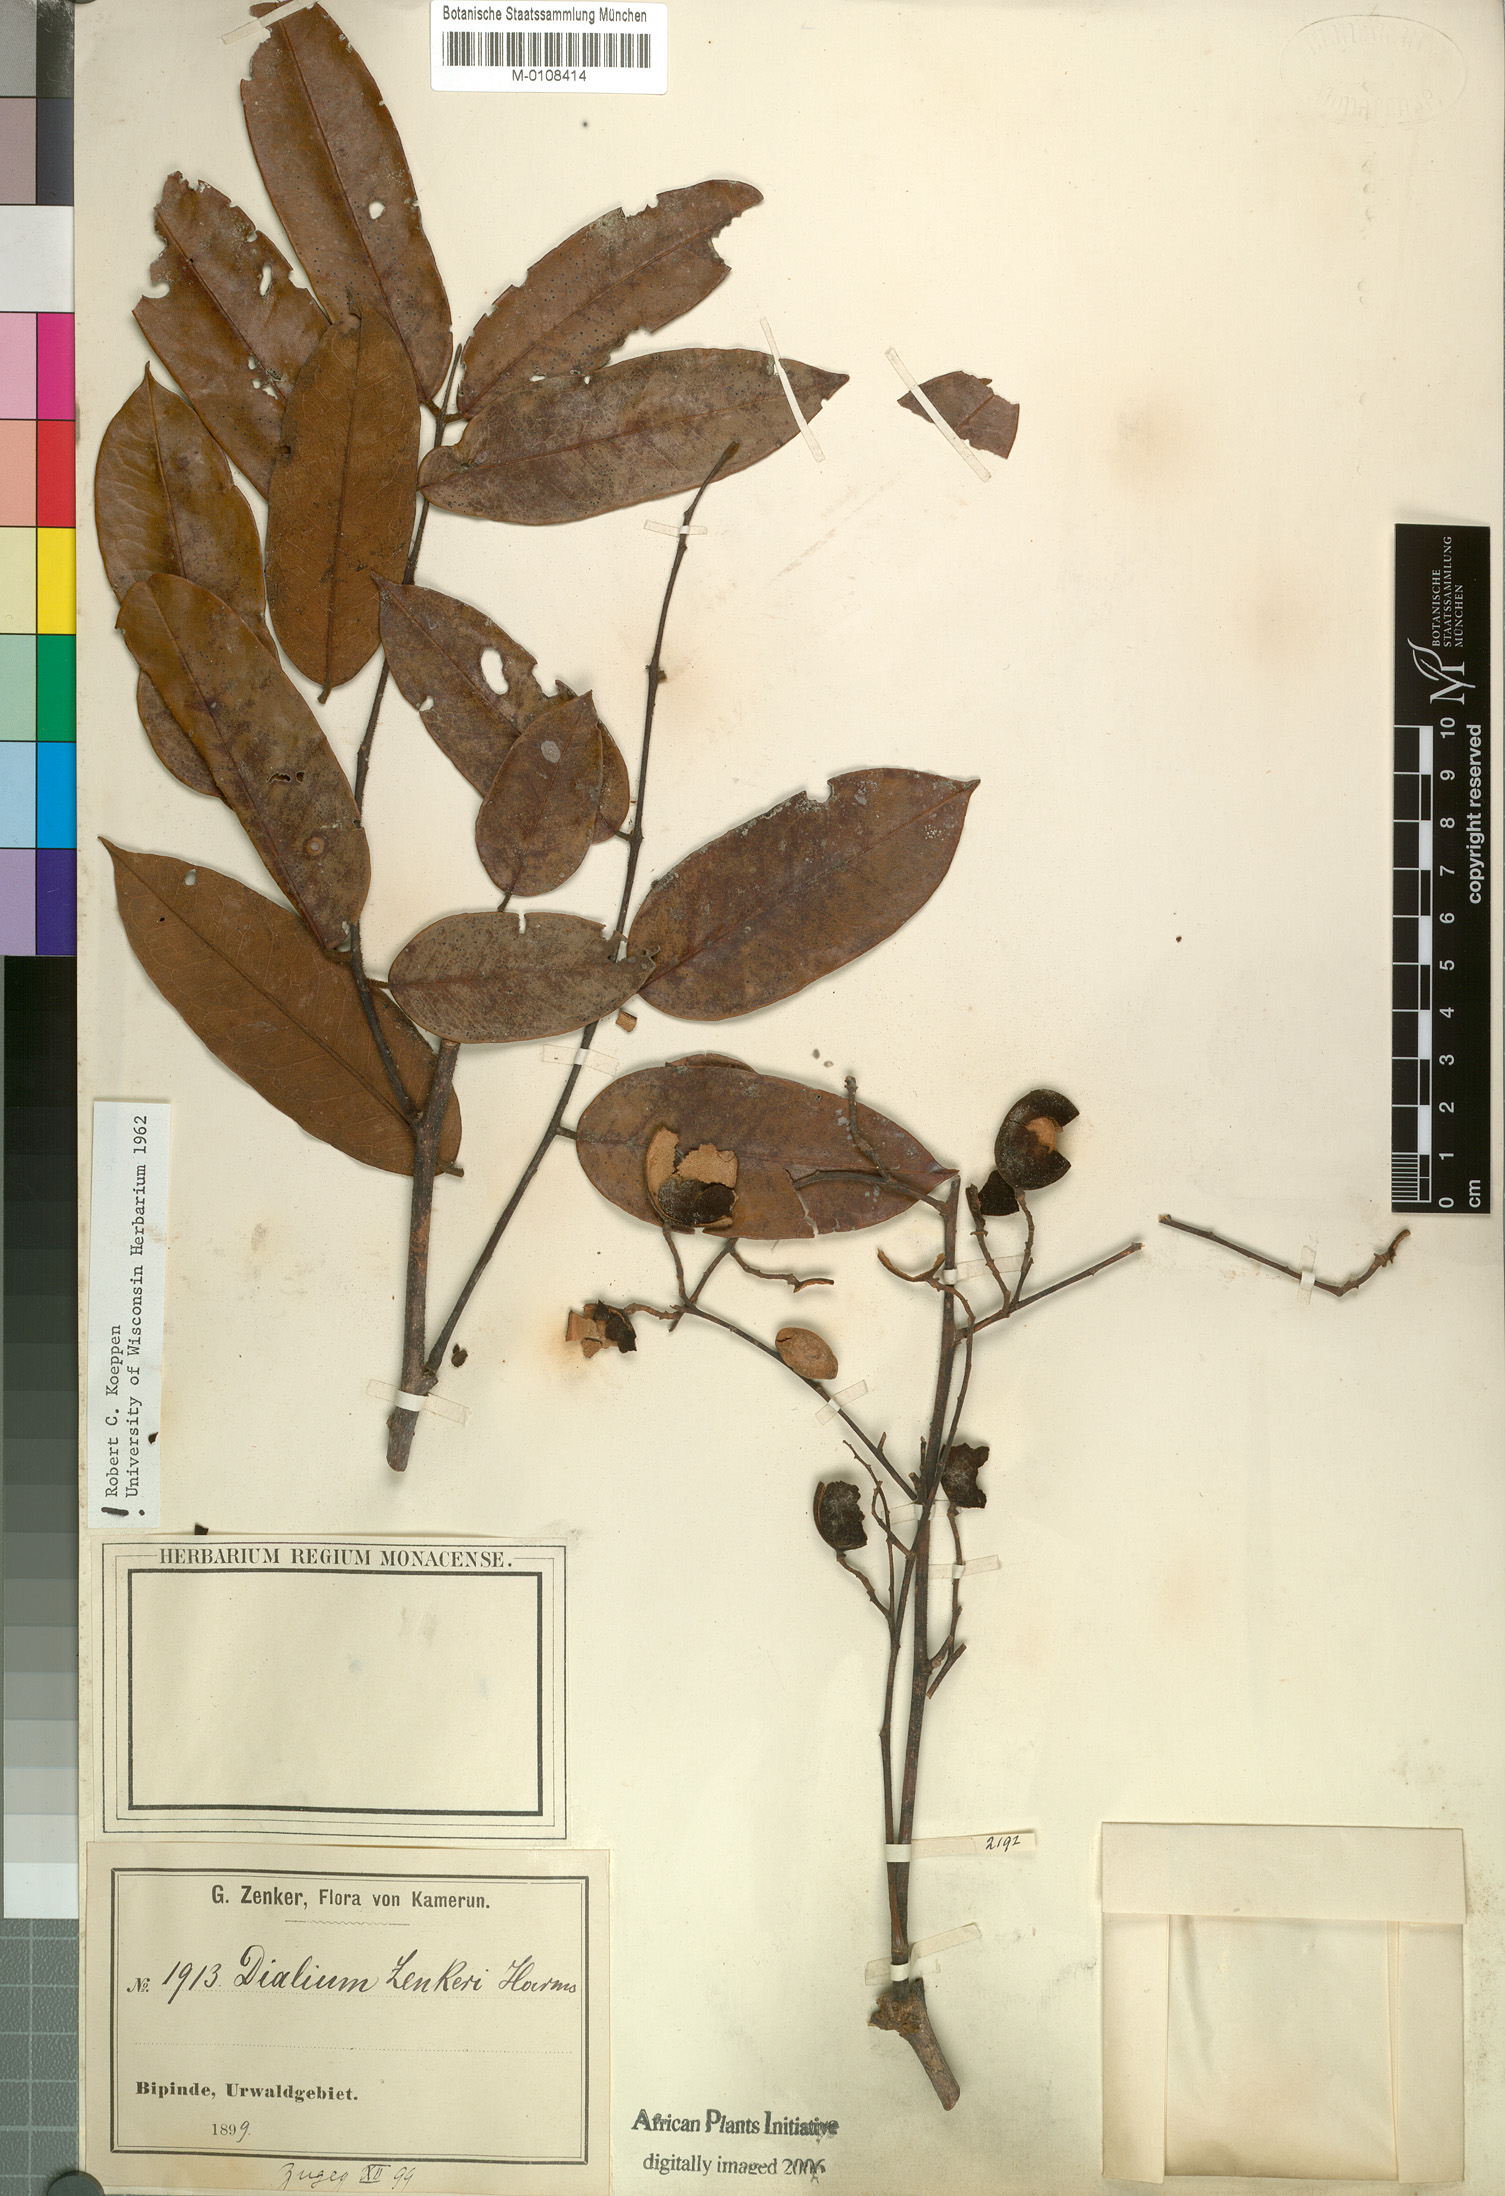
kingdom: Plantae
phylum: Tracheophyta
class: Magnoliopsida
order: Fabales
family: Fabaceae
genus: Dialium
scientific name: Dialium zenkeri
